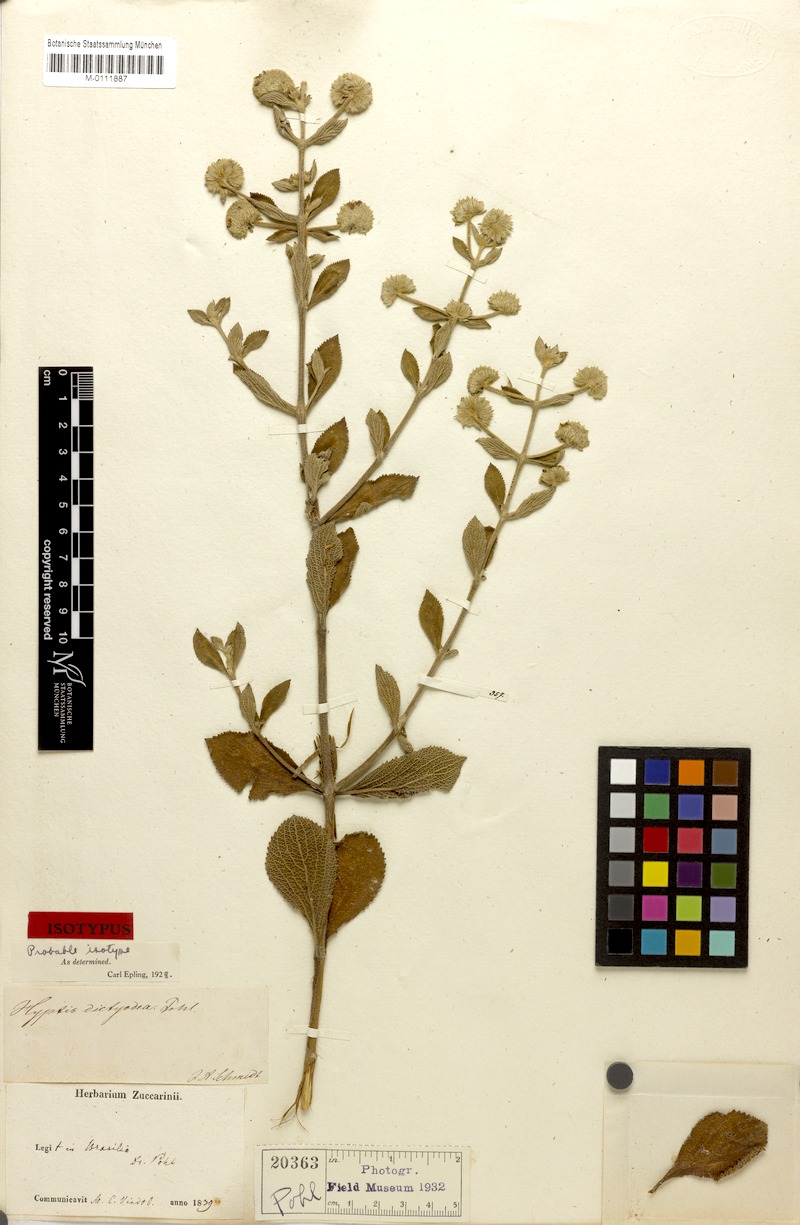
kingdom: Plantae
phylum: Tracheophyta
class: Magnoliopsida
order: Lamiales
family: Lamiaceae
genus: Hyptis
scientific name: Hyptis dictyodea
